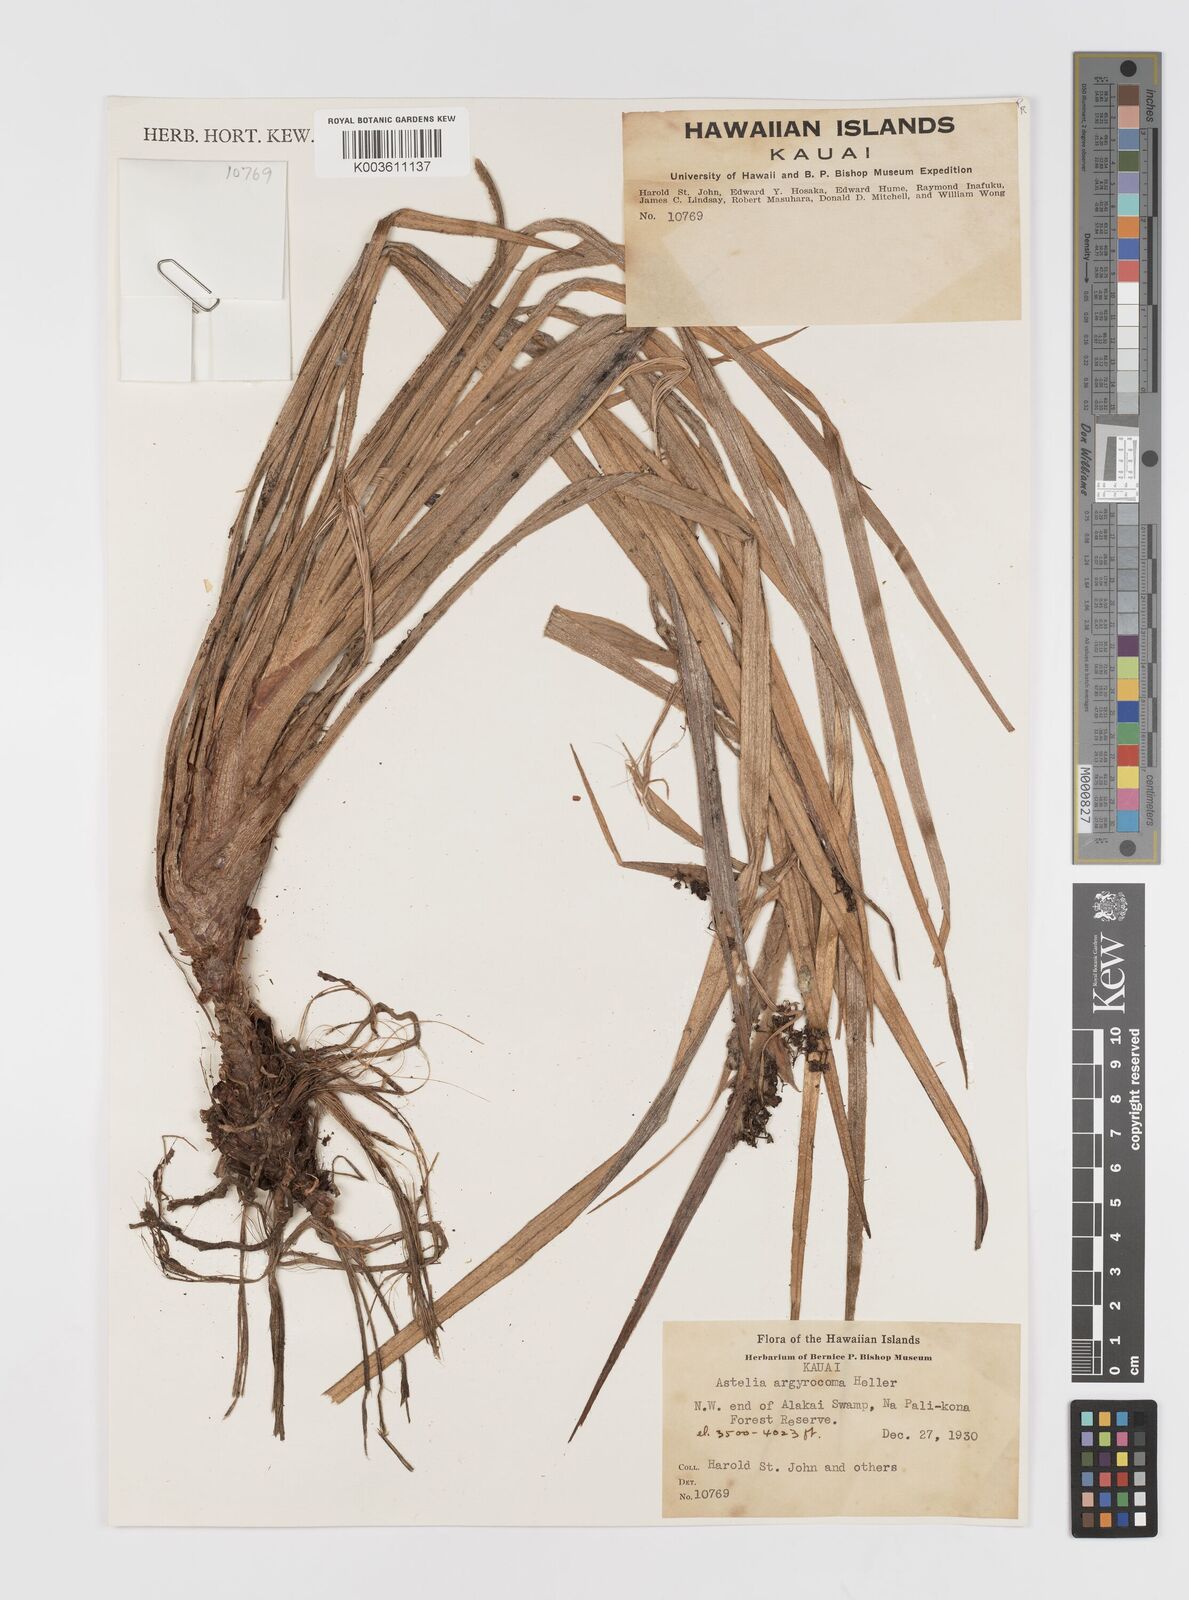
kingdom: Plantae
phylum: Tracheophyta
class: Liliopsida
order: Asparagales
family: Asteliaceae
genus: Astelia
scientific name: Astelia argyrocoma
